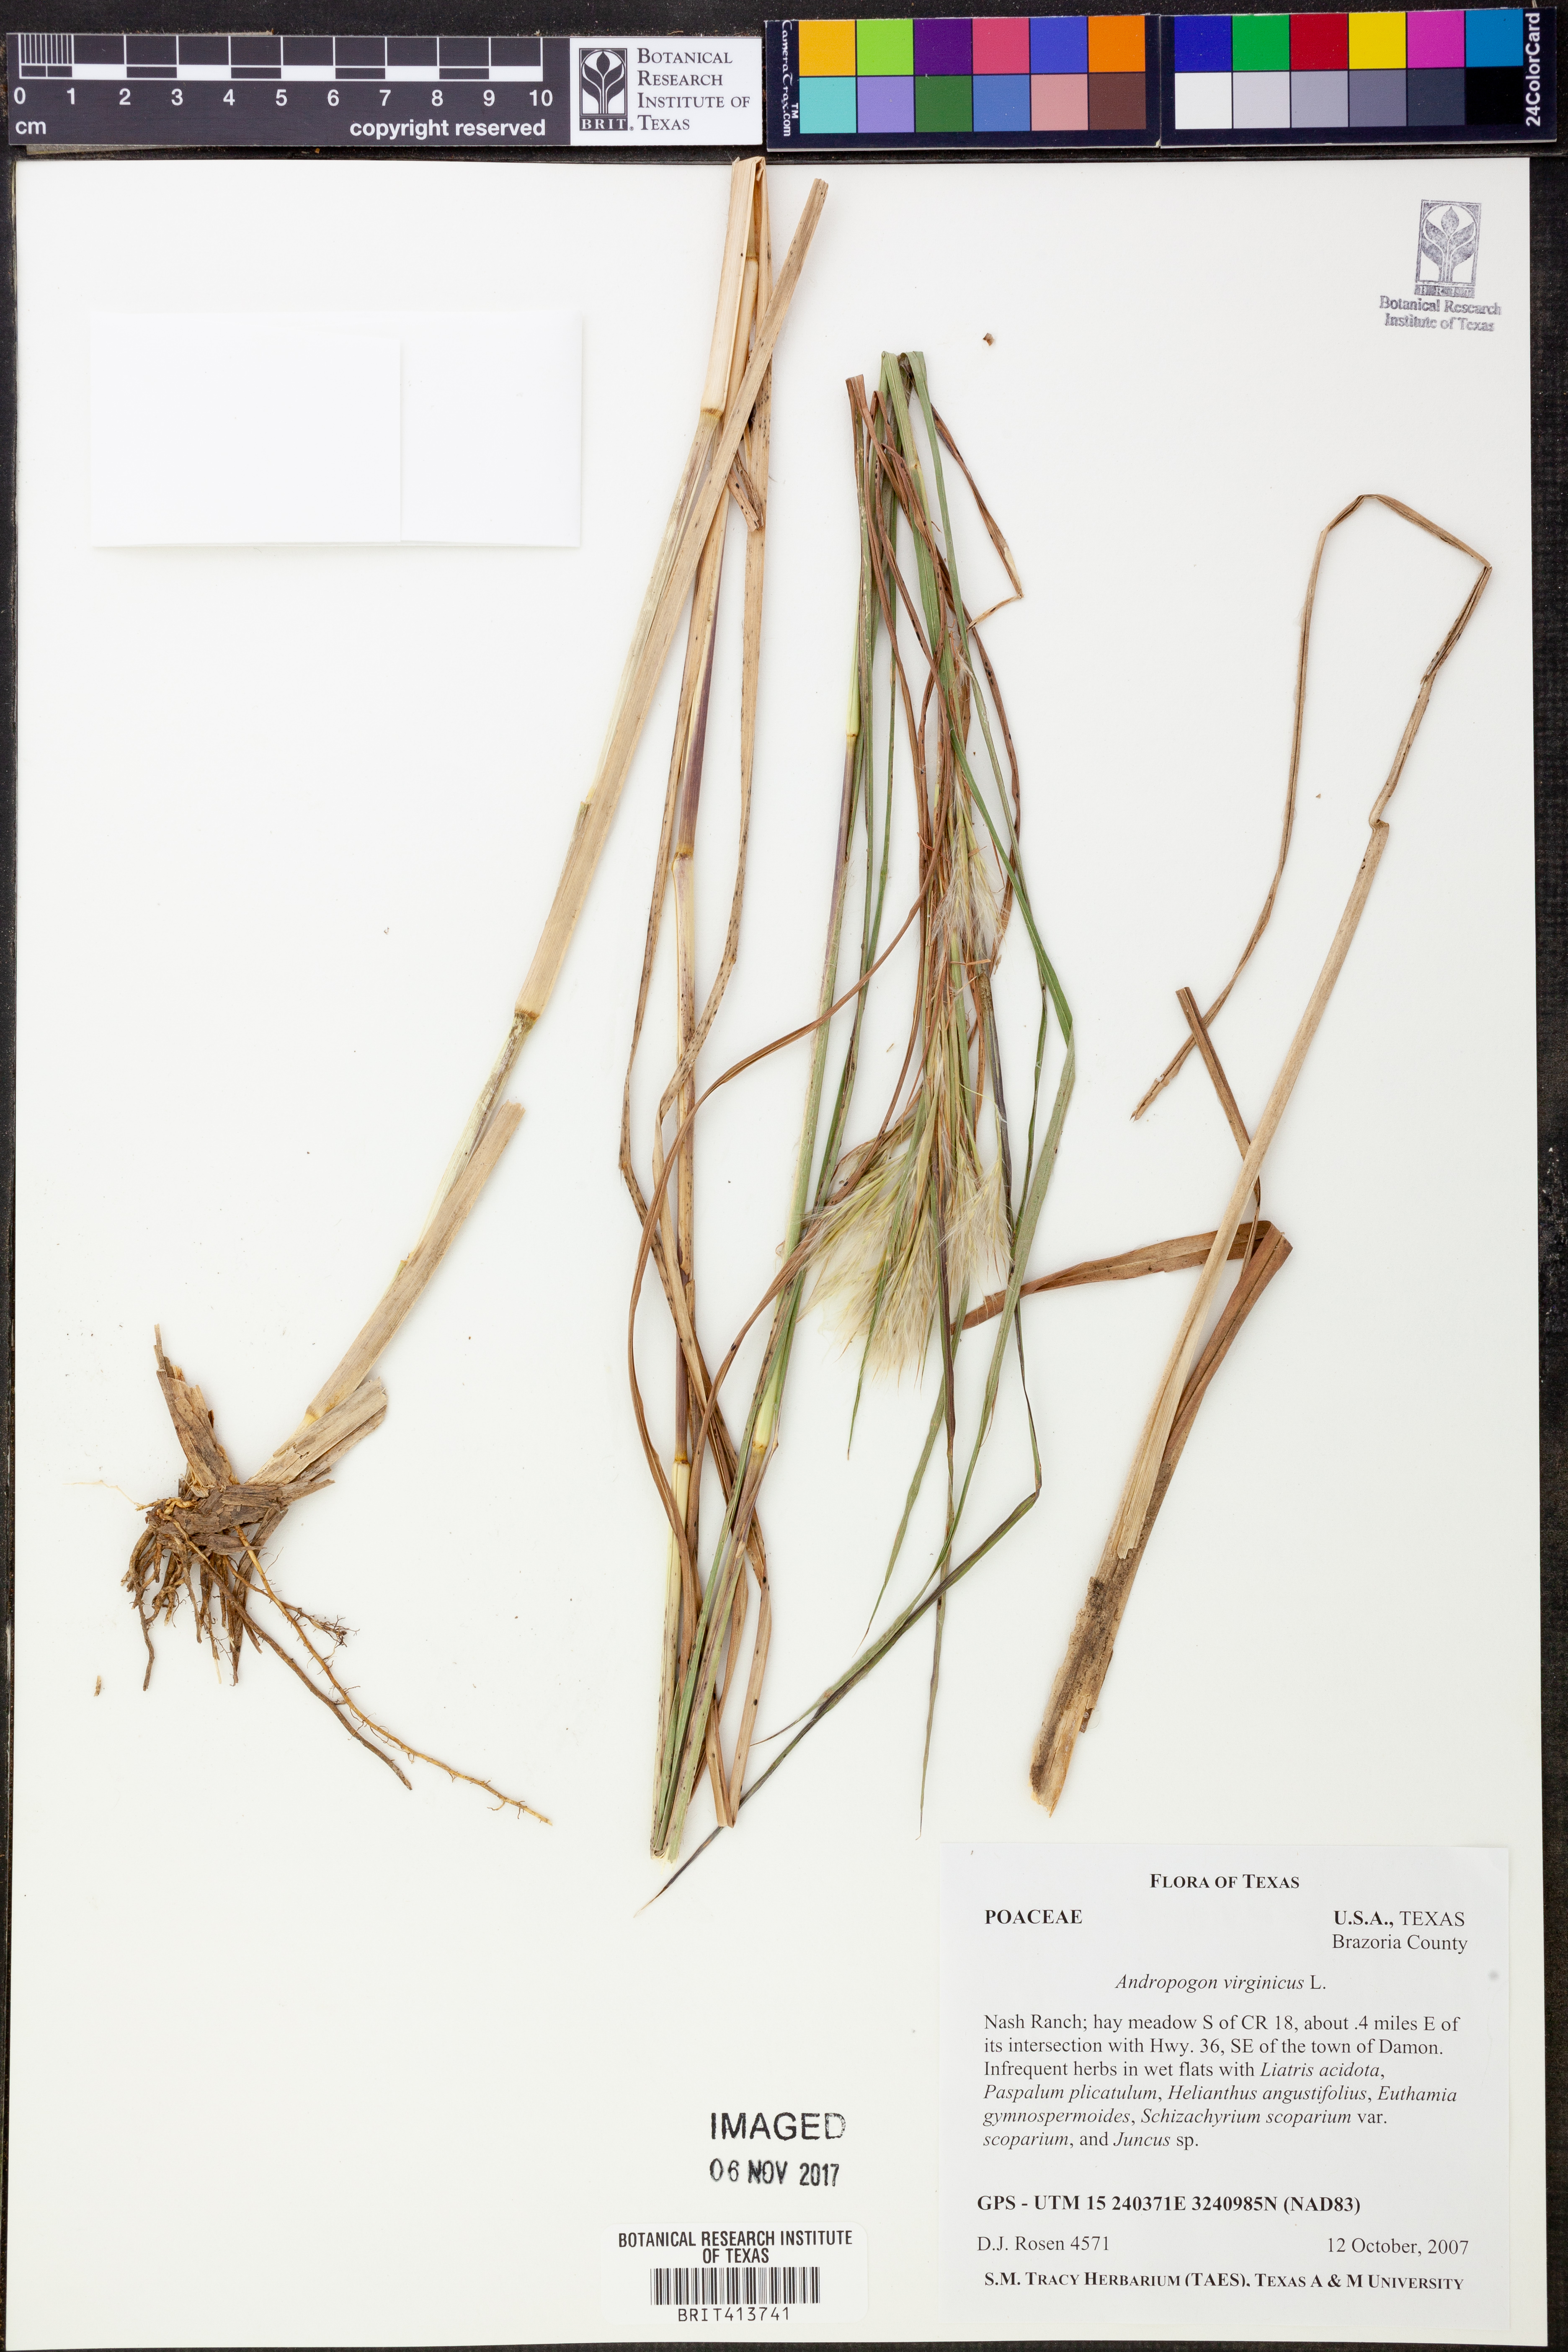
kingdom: Plantae
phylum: Tracheophyta
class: Liliopsida
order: Poales
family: Poaceae
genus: Andropogon
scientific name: Andropogon virginicus
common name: Broomsedge bluestem
